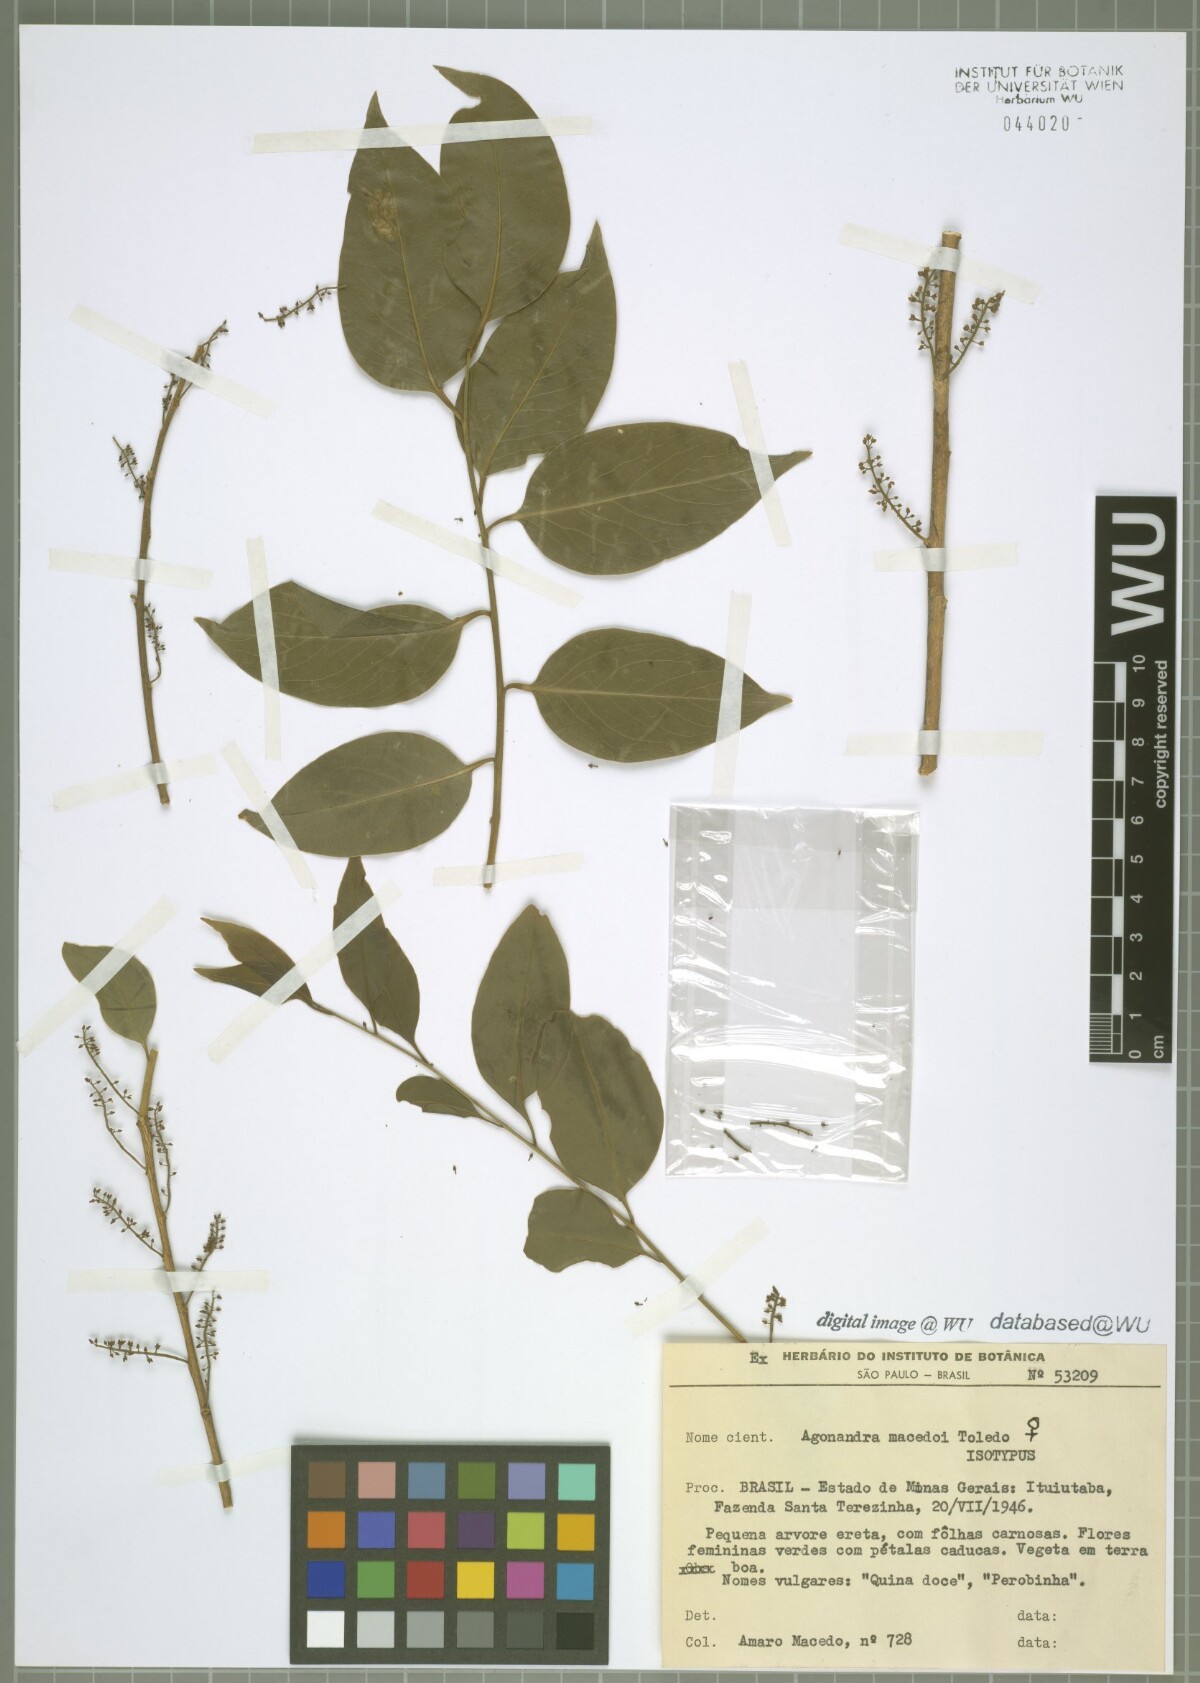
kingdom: Plantae
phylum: Tracheophyta
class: Magnoliopsida
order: Santalales
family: Opiliaceae
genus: Agonandra
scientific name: Agonandra brasiliensis
